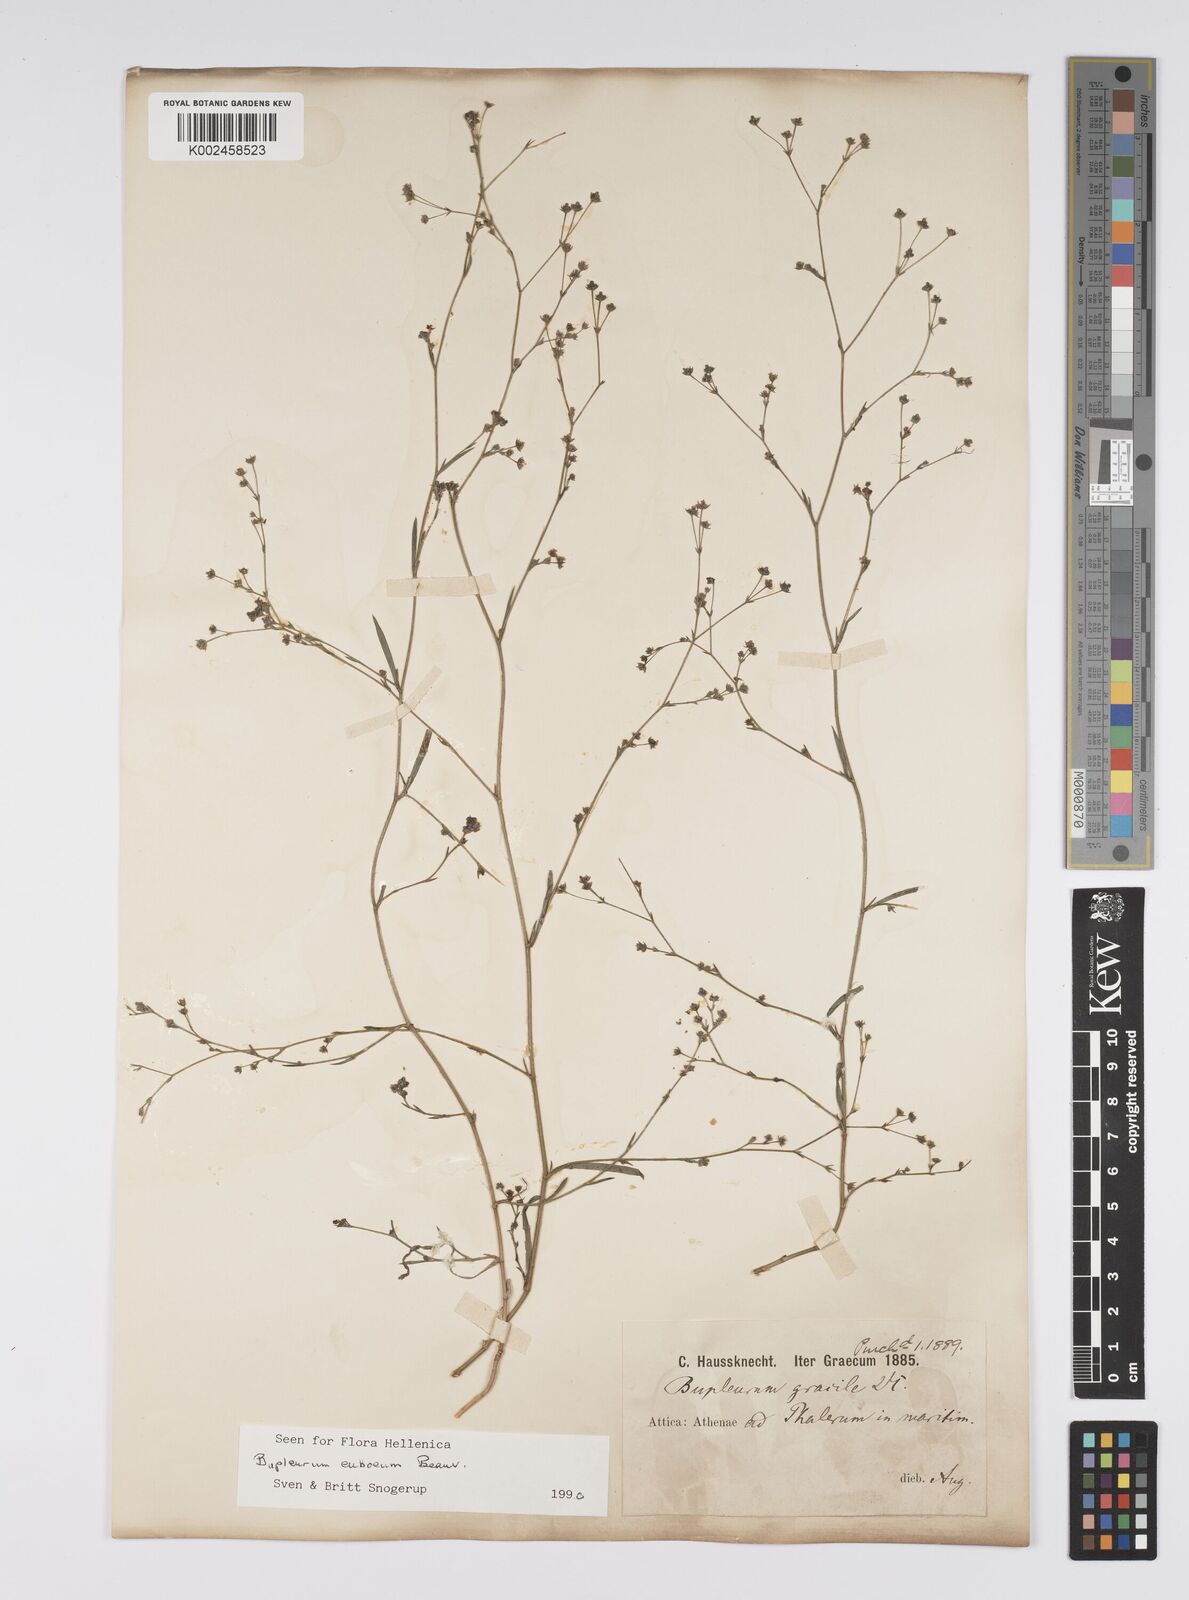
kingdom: Plantae
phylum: Tracheophyta
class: Magnoliopsida
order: Apiales
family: Apiaceae
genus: Bupleurum
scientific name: Bupleurum tenuissimum
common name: Slender hare's-ear
